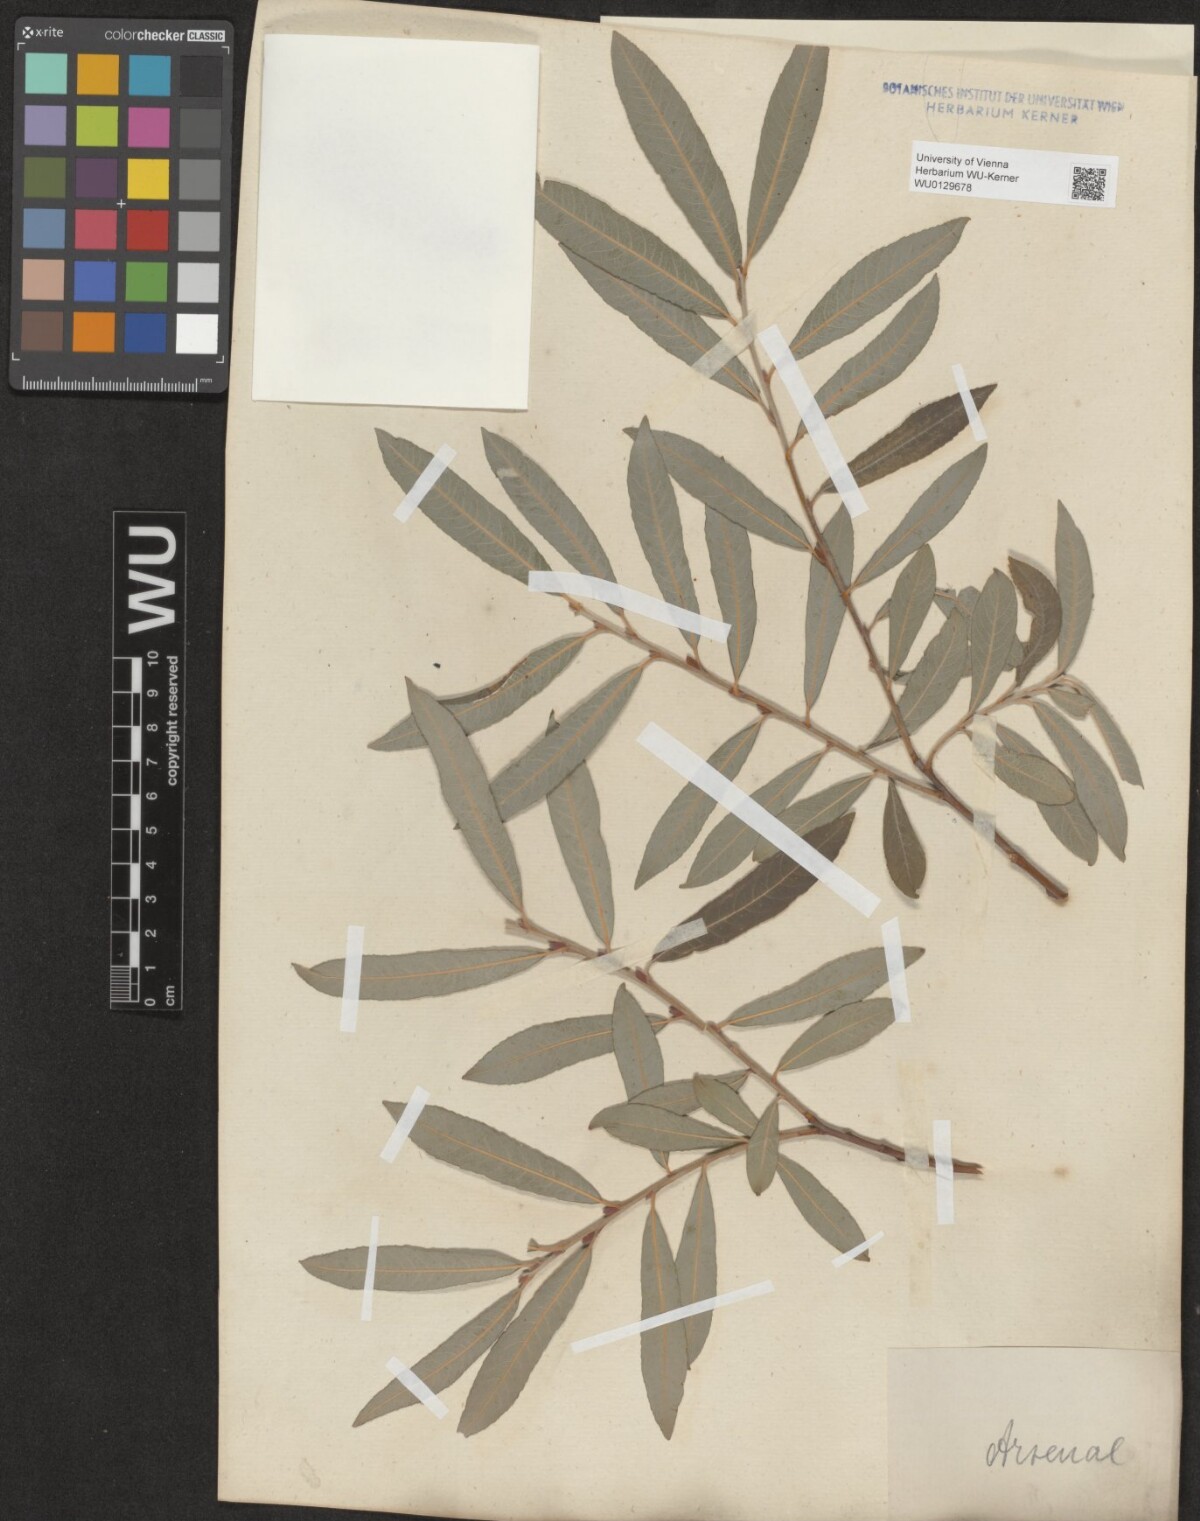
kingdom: Plantae
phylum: Tracheophyta
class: Magnoliopsida
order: Malpighiales
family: Salicaceae
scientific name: Salicaceae
